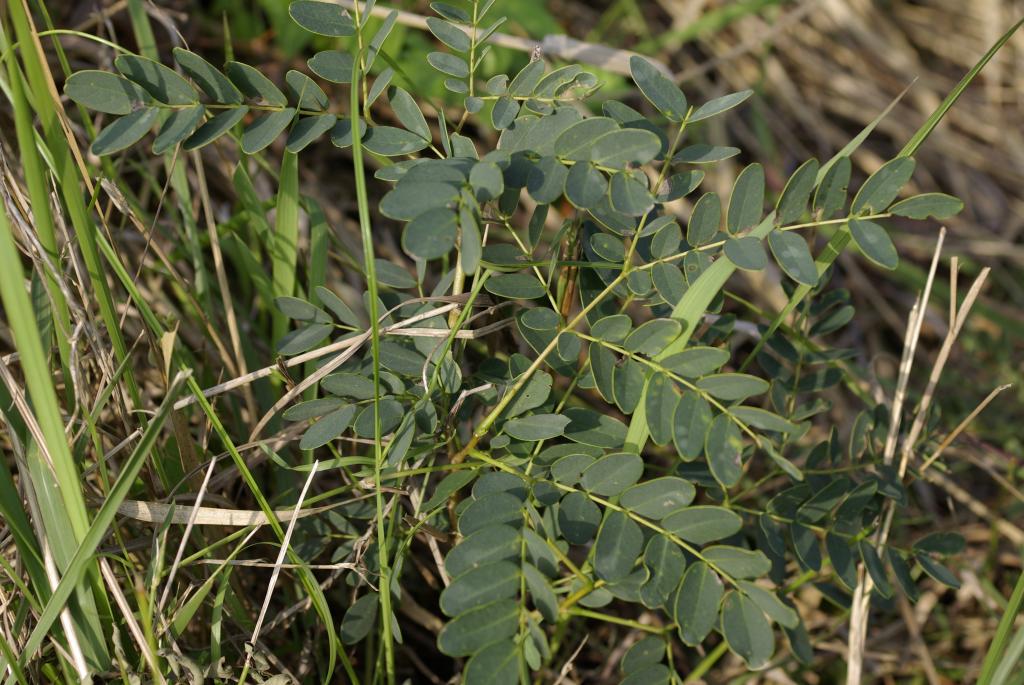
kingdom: Plantae
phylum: Tracheophyta
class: Magnoliopsida
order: Fabales
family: Fabaceae
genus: Albizia
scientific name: Albizia procera
